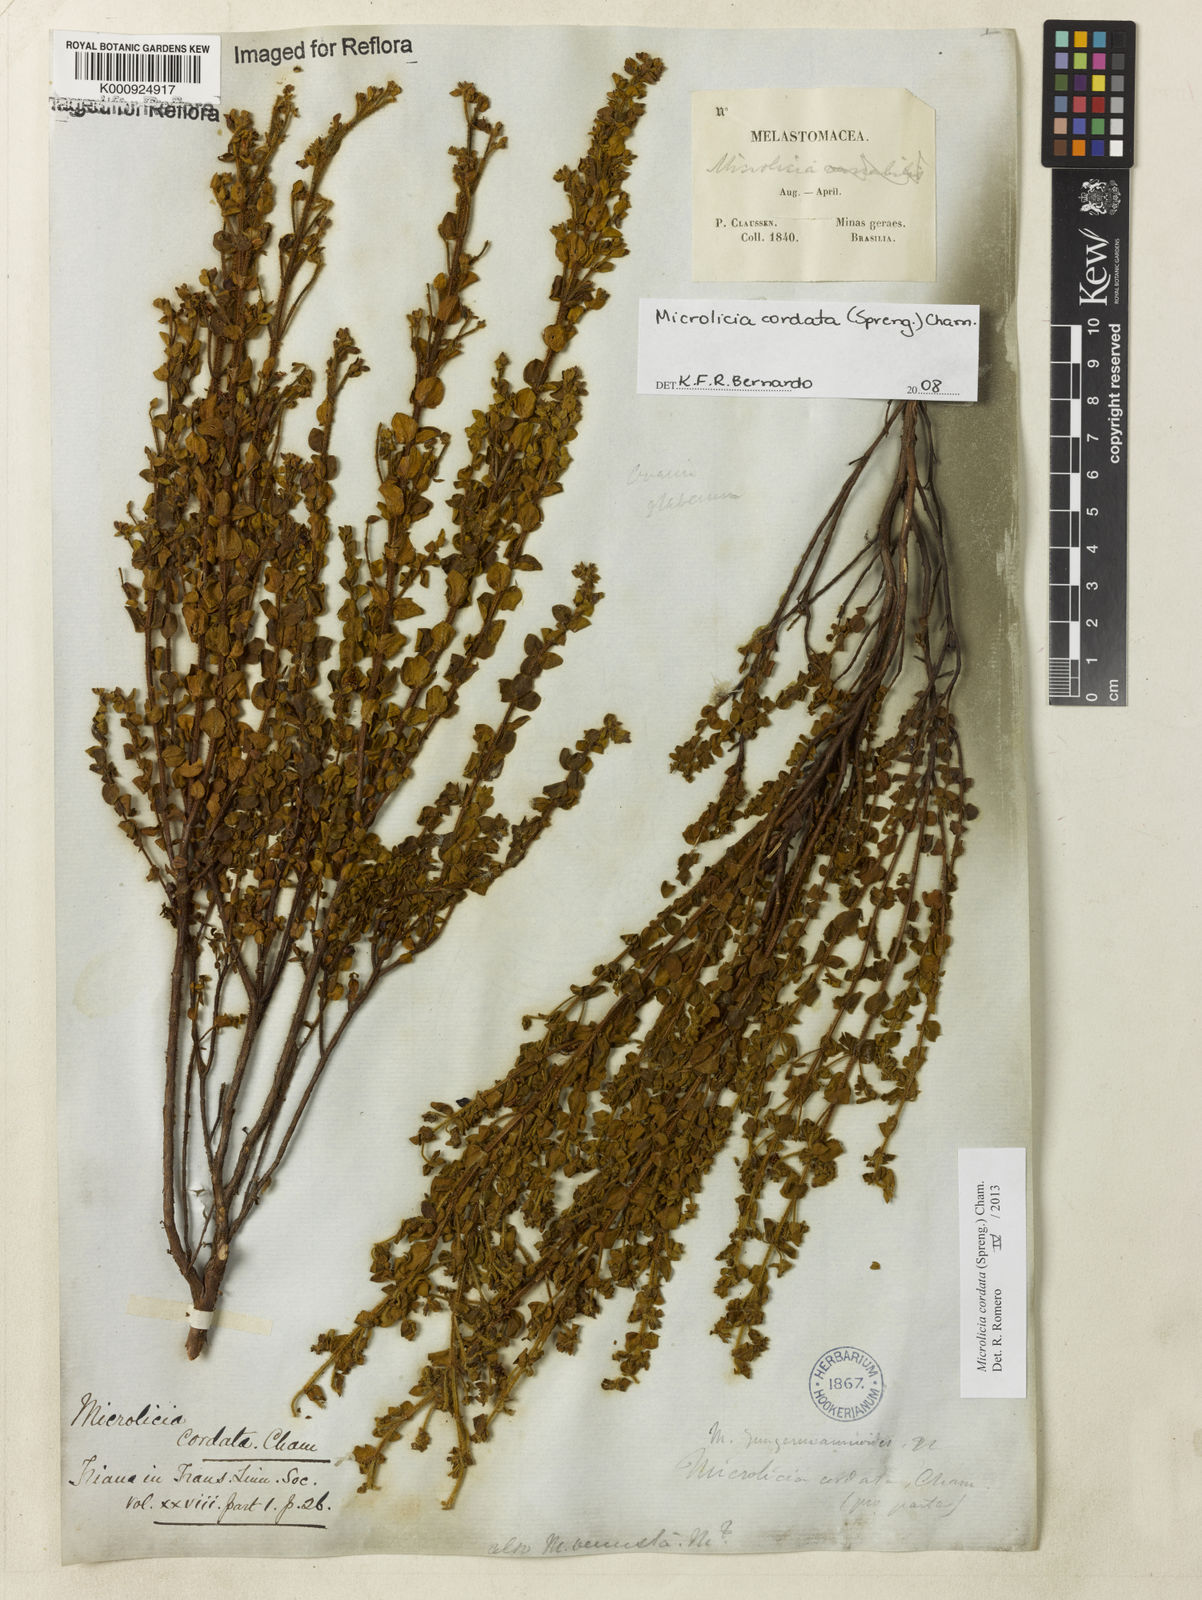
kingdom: Plantae
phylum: Tracheophyta
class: Magnoliopsida
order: Myrtales
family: Melastomataceae
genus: Microlicia
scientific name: Microlicia cordata
